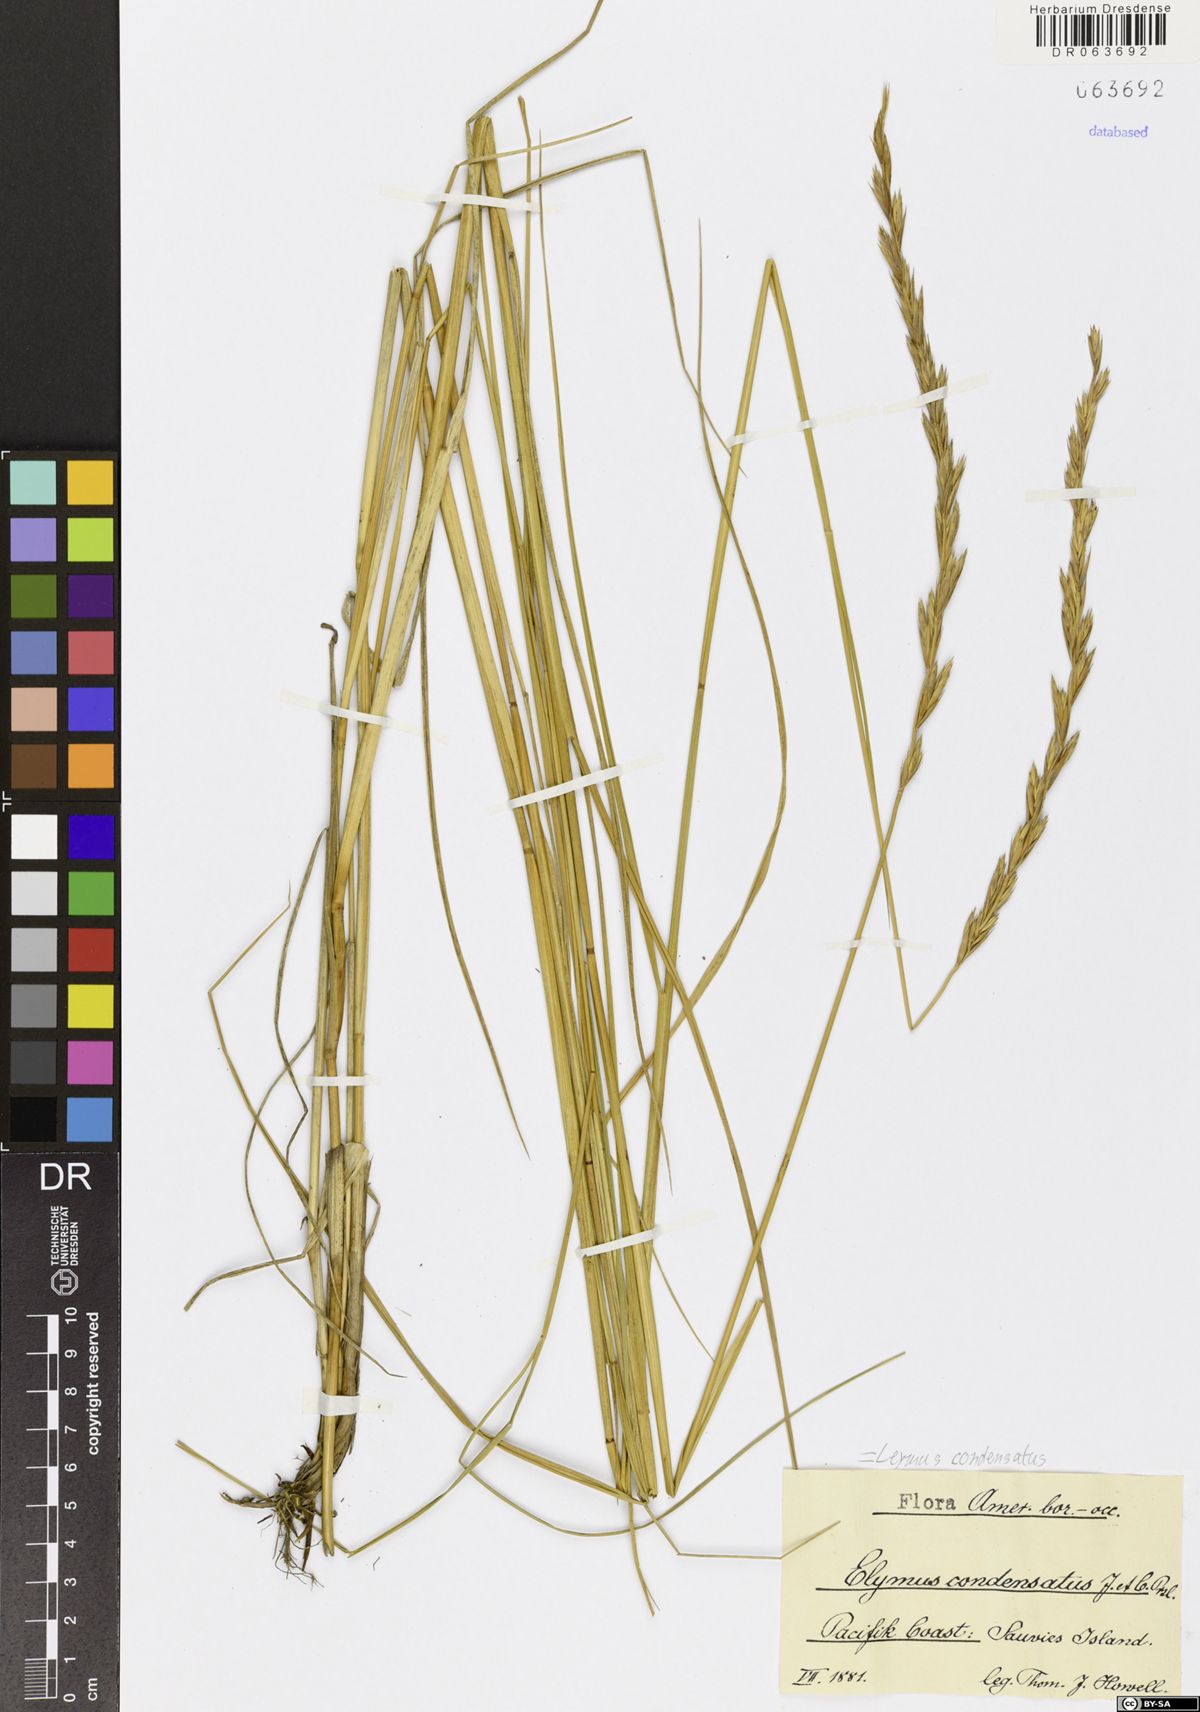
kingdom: Plantae
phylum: Tracheophyta
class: Liliopsida
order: Poales
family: Poaceae
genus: Leymus
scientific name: Leymus condensatus
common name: Giant wild rye
